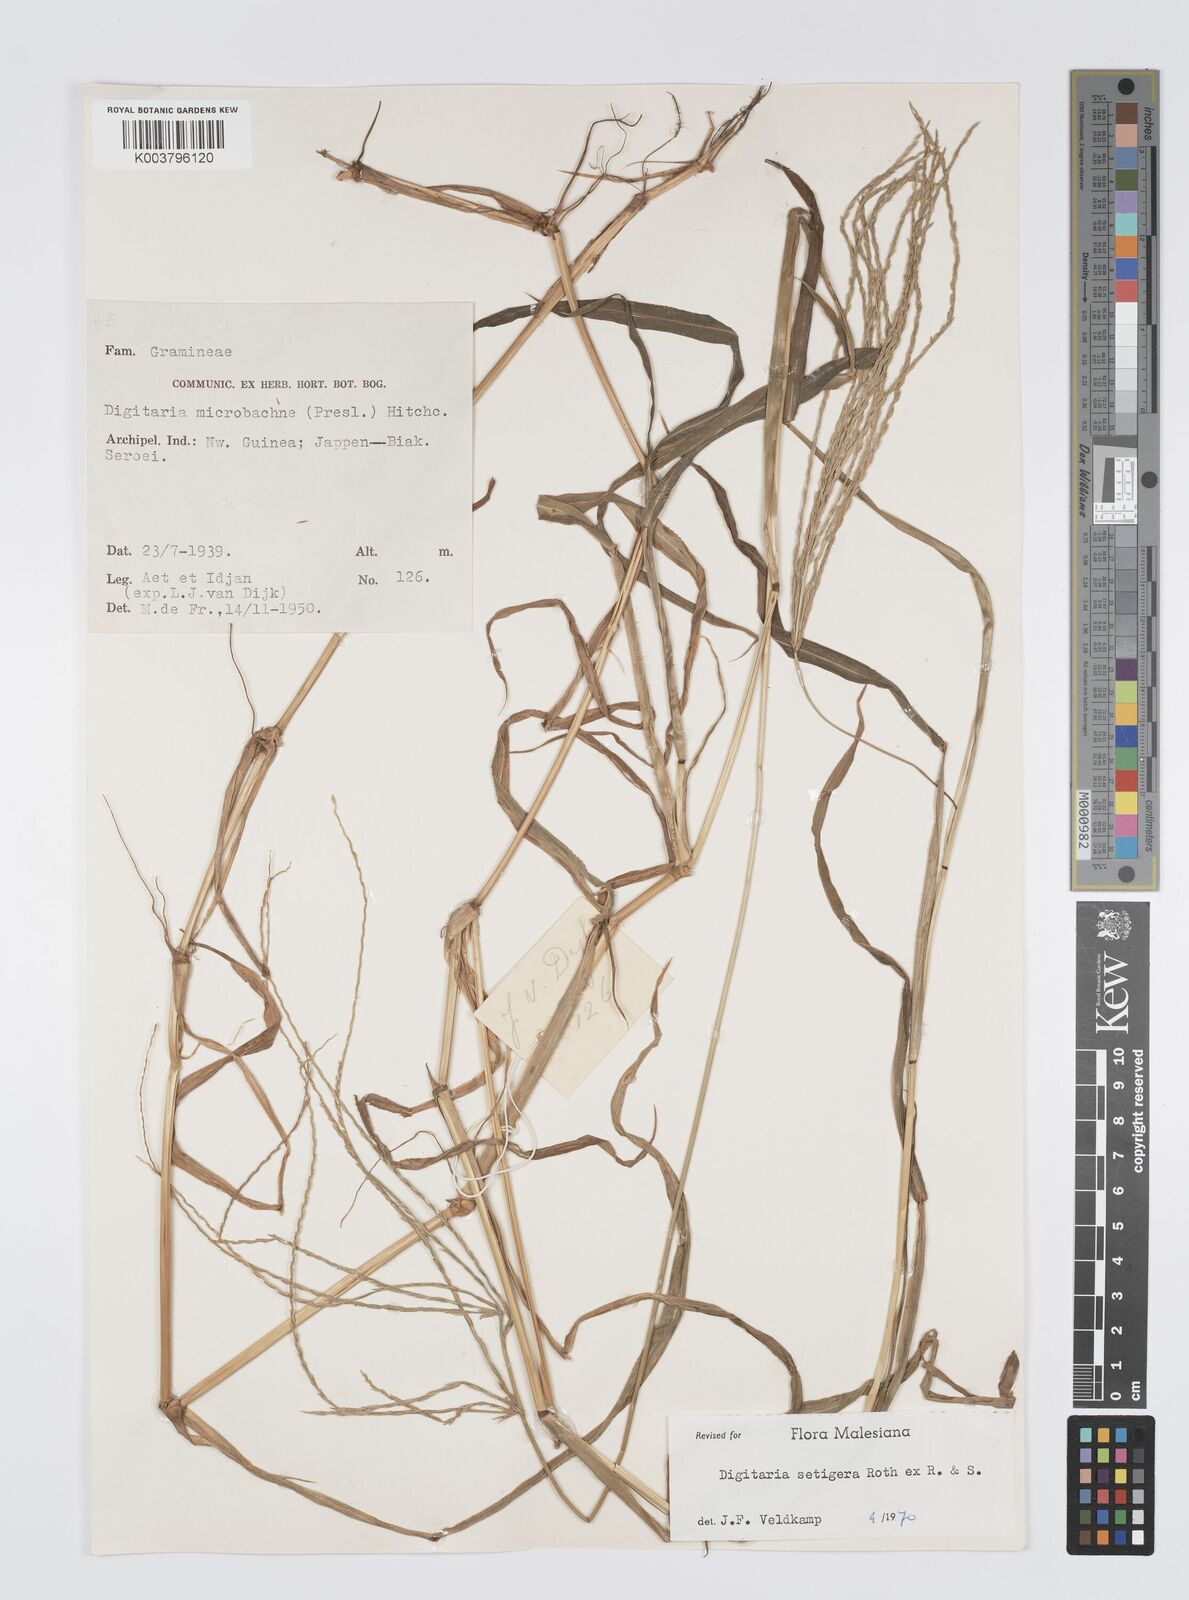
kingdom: Plantae
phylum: Tracheophyta
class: Liliopsida
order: Poales
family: Poaceae
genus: Digitaria
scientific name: Digitaria setigera
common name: East indian crabgrass
